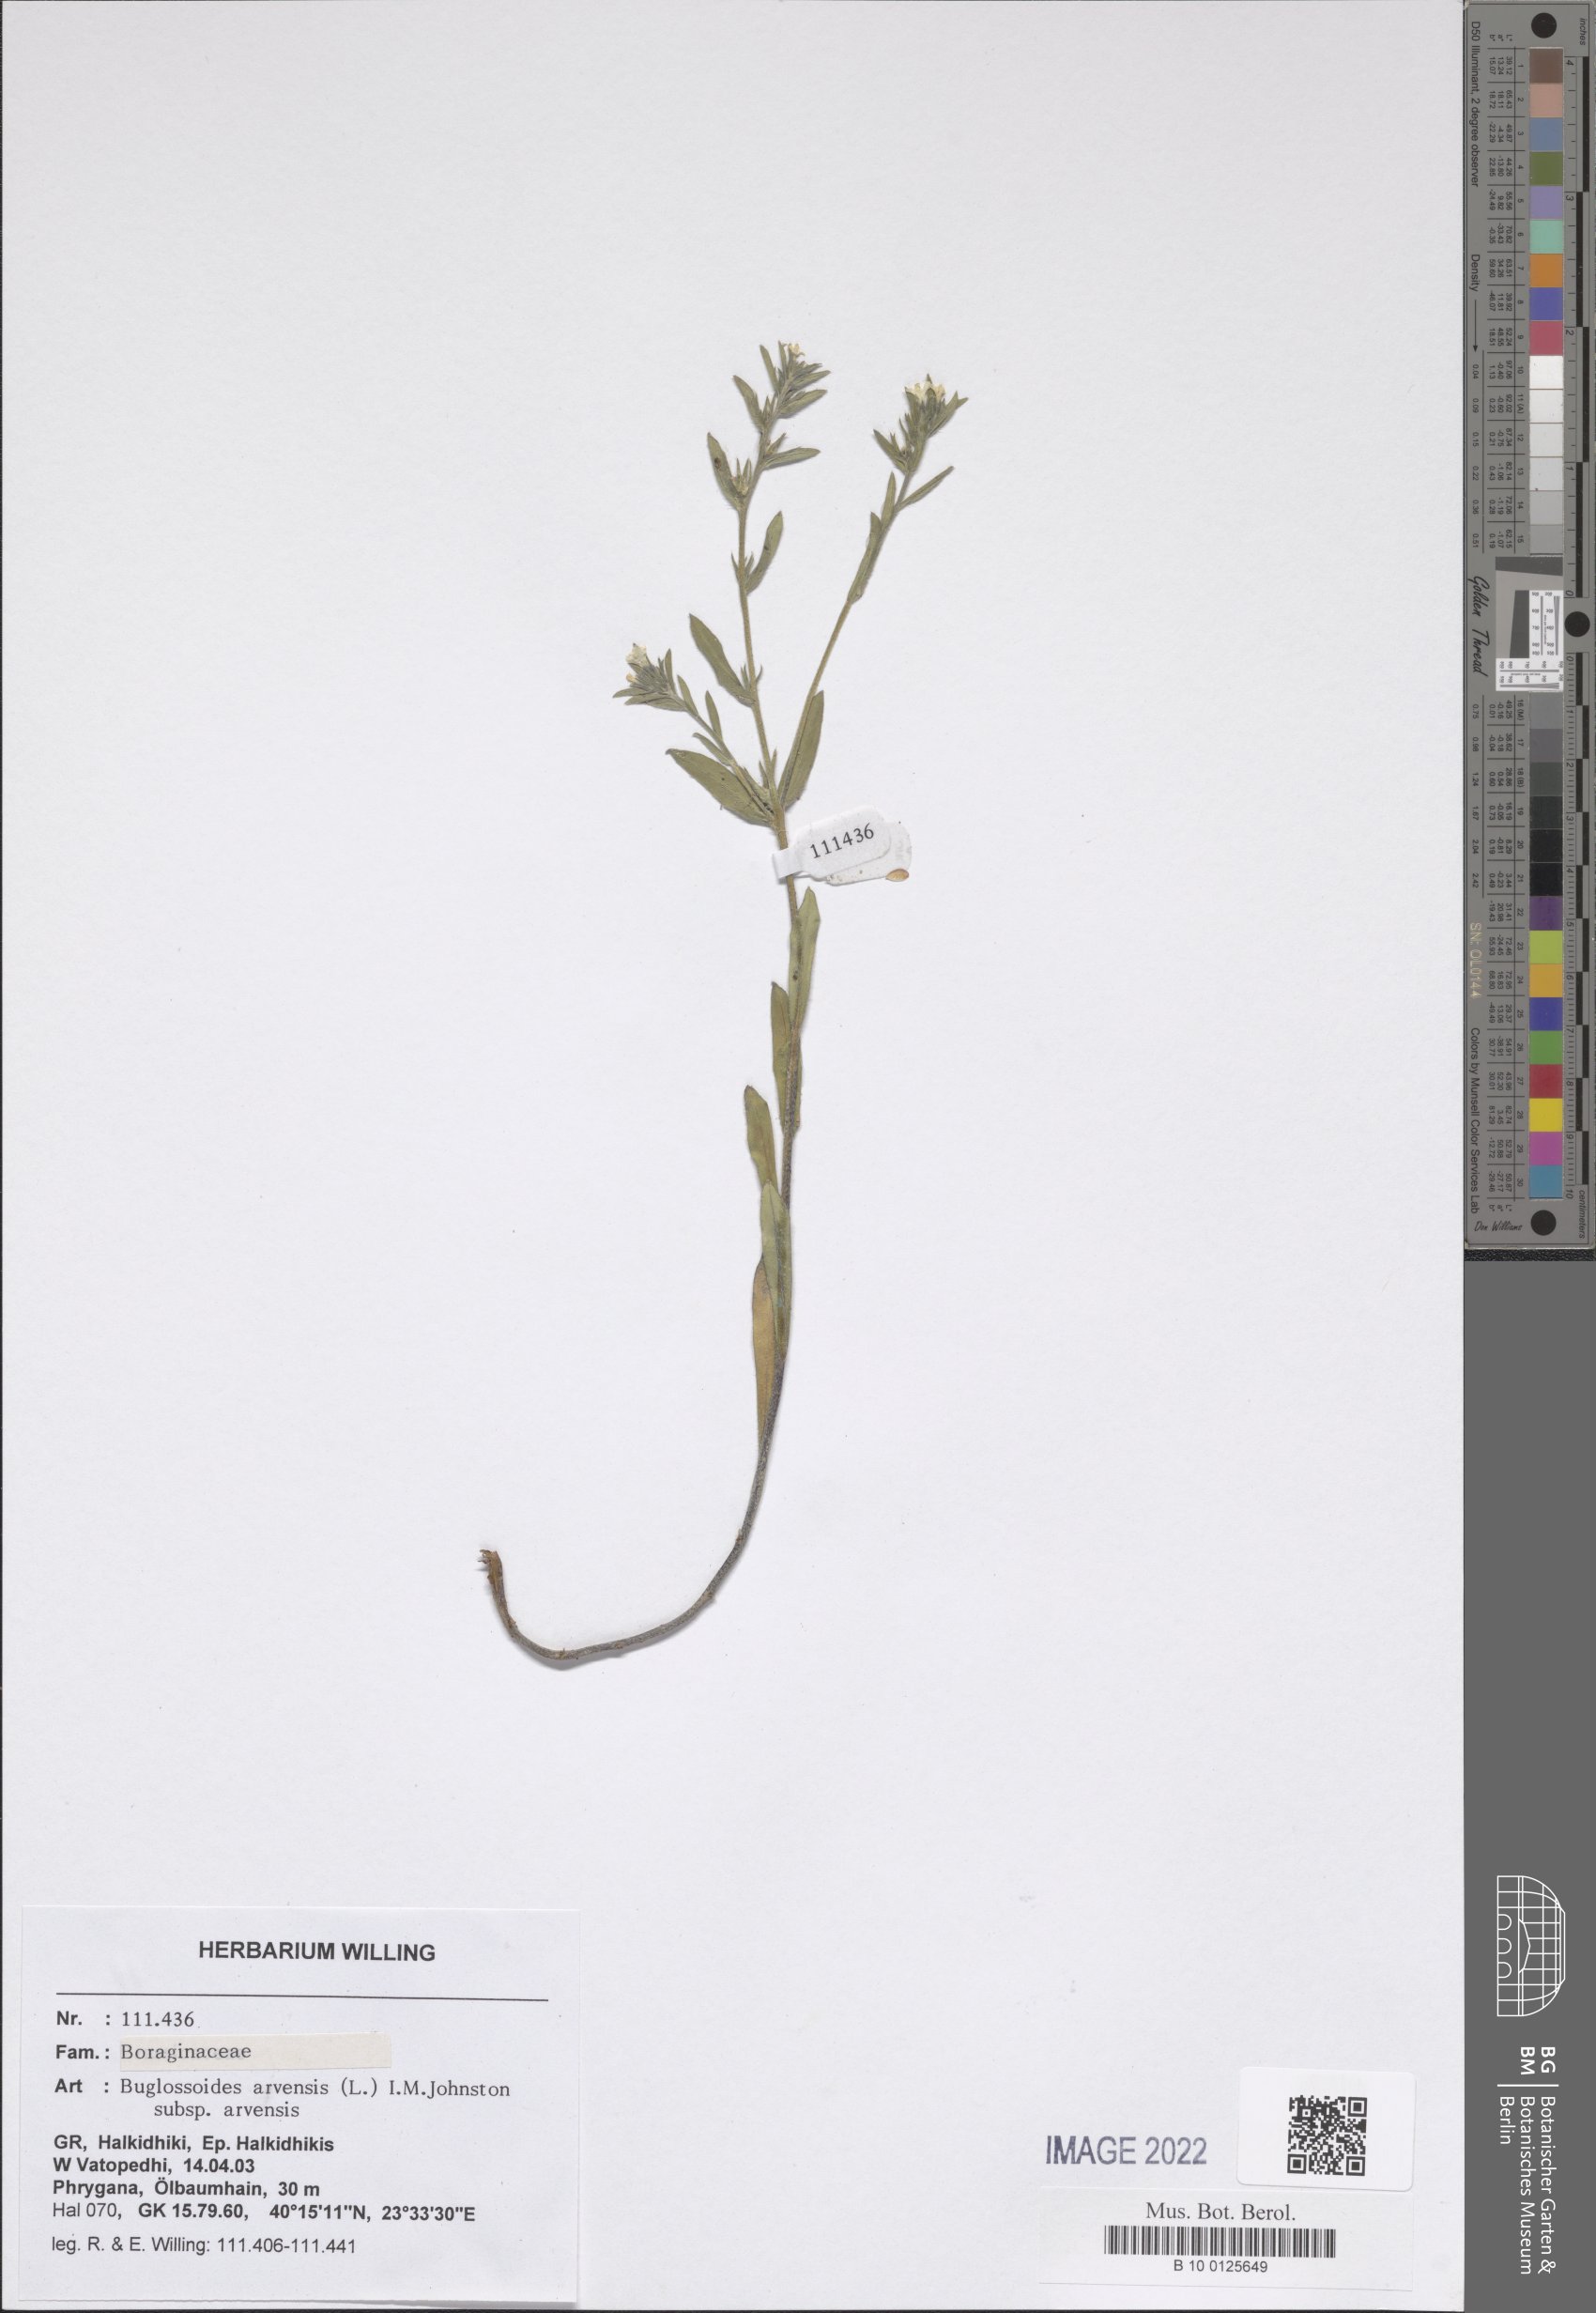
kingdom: Plantae
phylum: Tracheophyta
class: Magnoliopsida
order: Boraginales
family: Boraginaceae
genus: Buglossoides
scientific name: Buglossoides arvensis
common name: Corn gromwell
